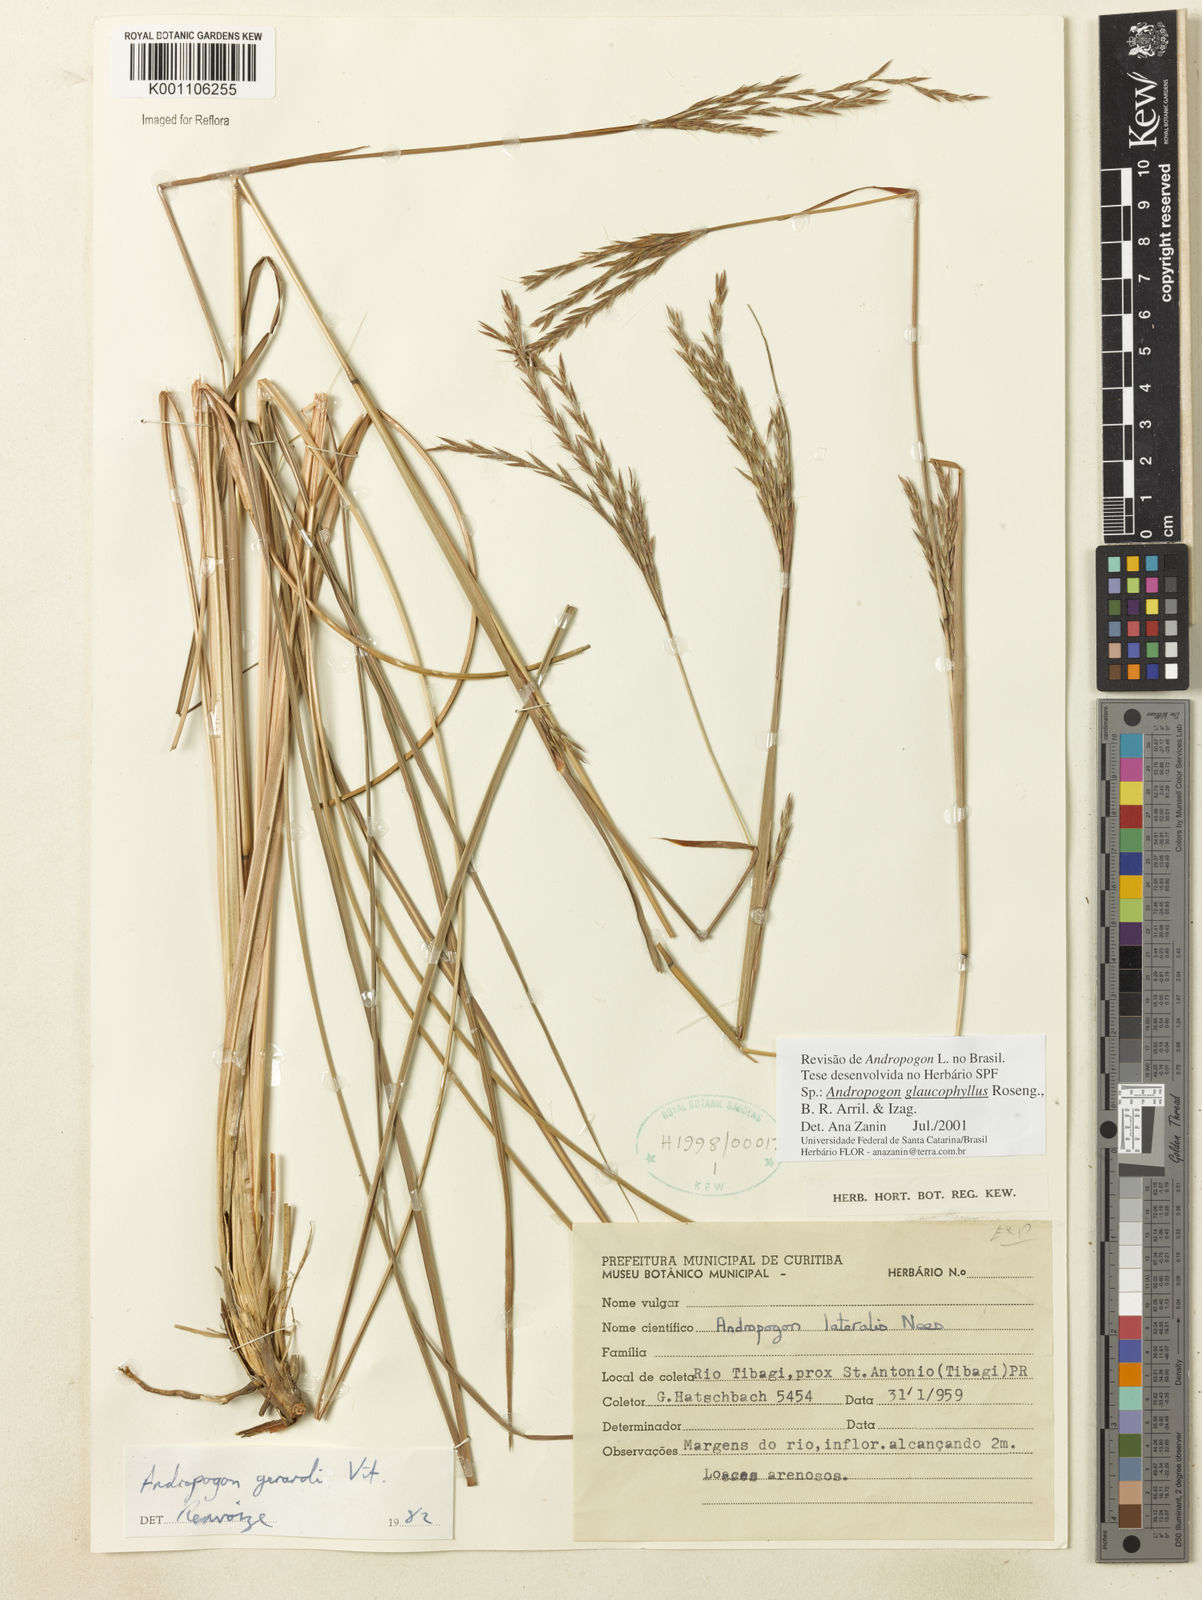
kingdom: Plantae
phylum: Tracheophyta
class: Liliopsida
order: Poales
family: Poaceae
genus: Andropogon
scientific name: Andropogon glaucophyllus
